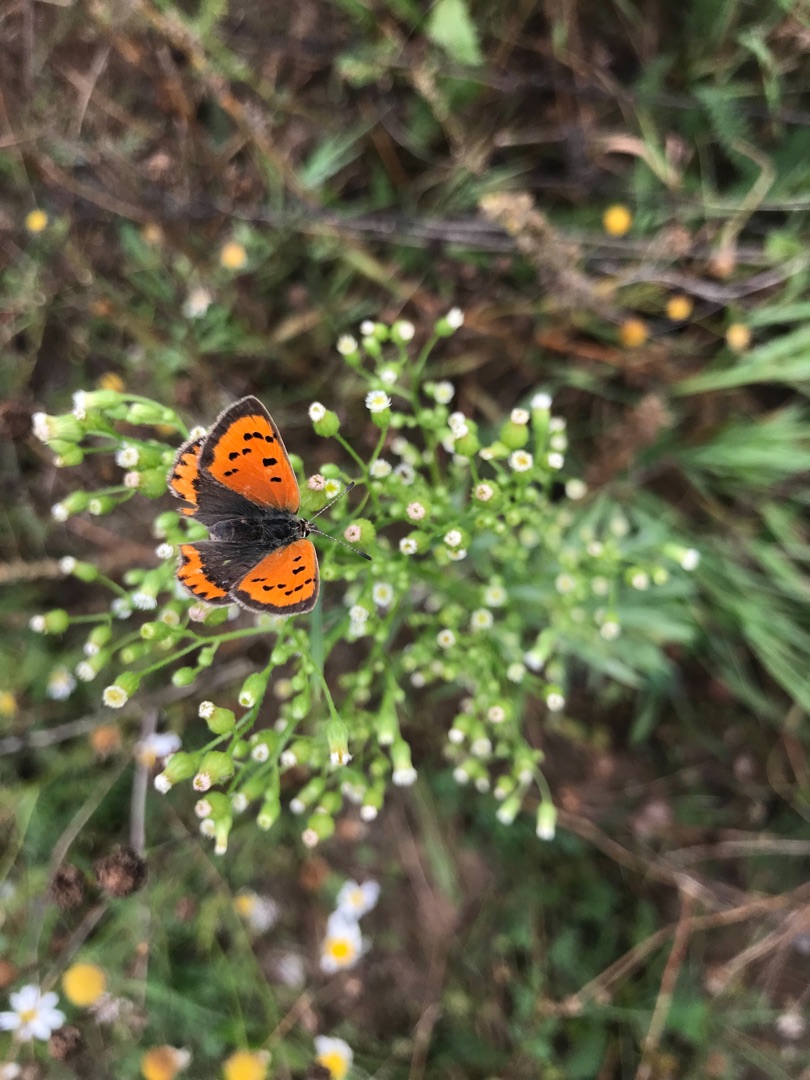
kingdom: Animalia
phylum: Arthropoda
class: Insecta
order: Lepidoptera
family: Lycaenidae
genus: Lycaena
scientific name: Lycaena phlaeas
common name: Lille ildfugl
